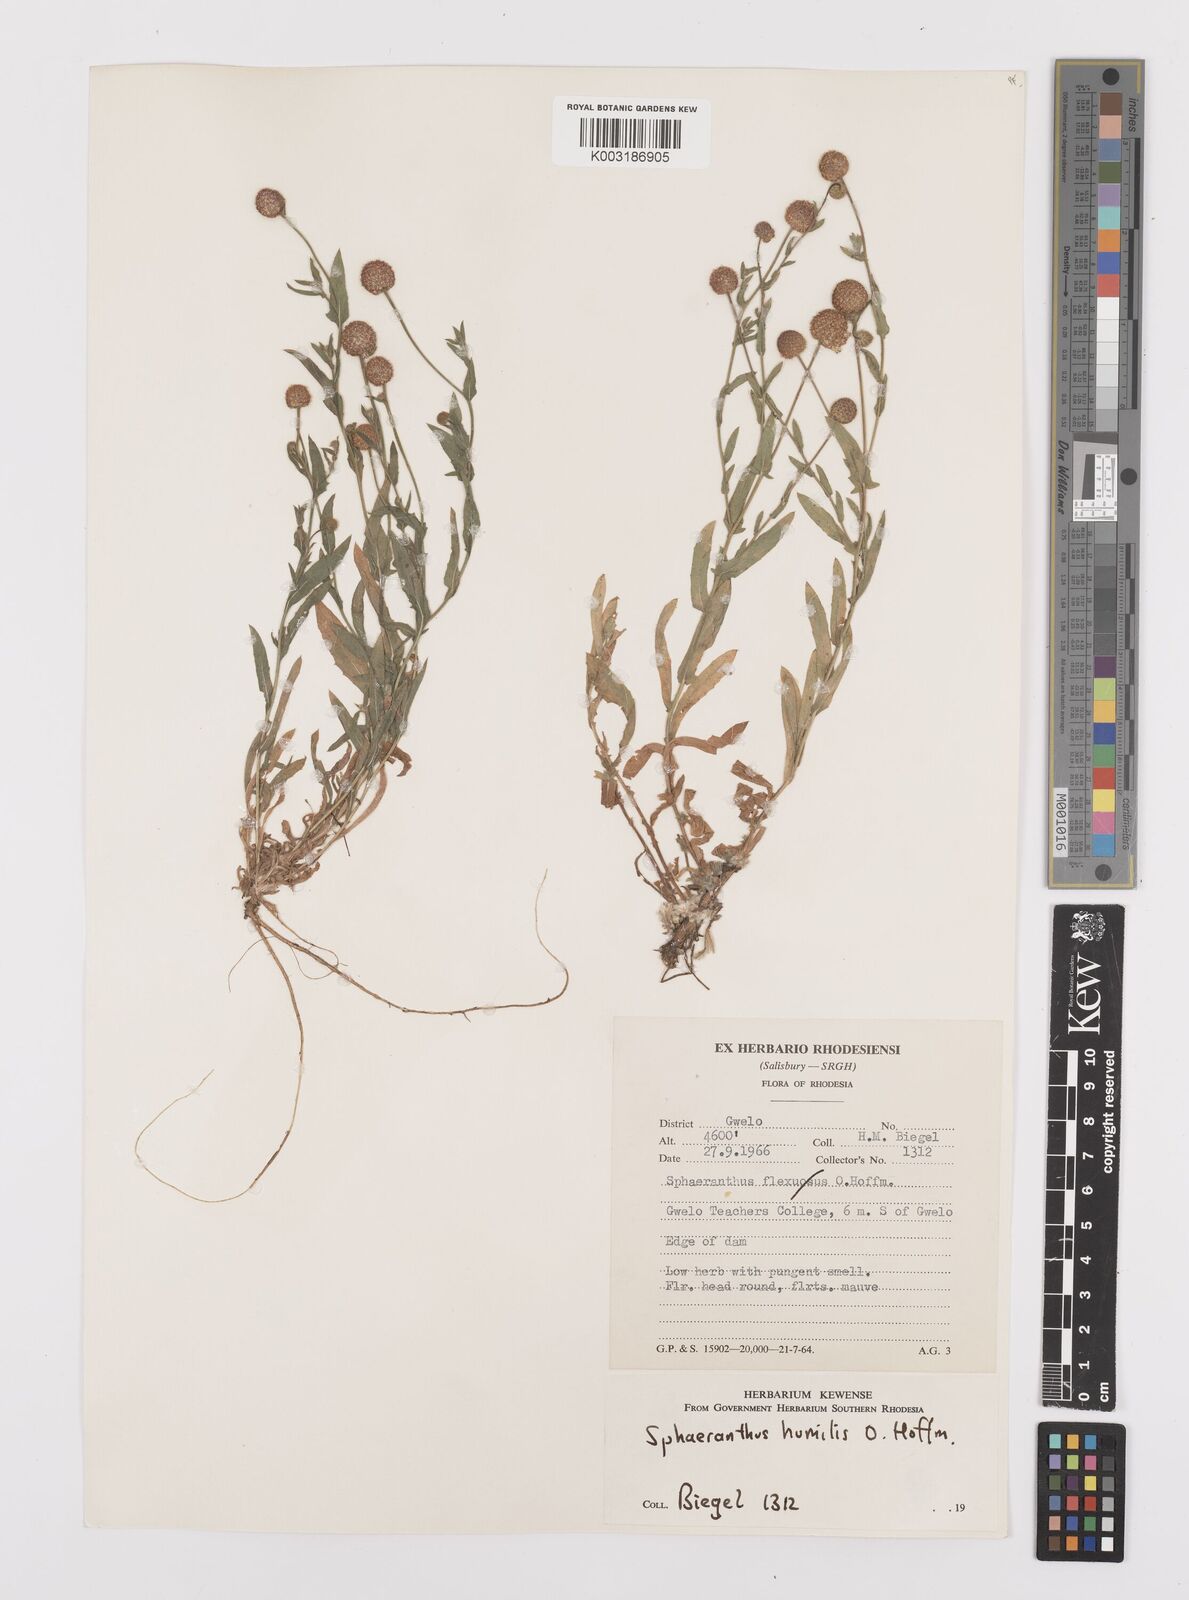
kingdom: Plantae
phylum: Tracheophyta
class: Magnoliopsida
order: Asterales
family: Asteraceae
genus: Sphaeranthus
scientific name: Sphaeranthus flexuosus
